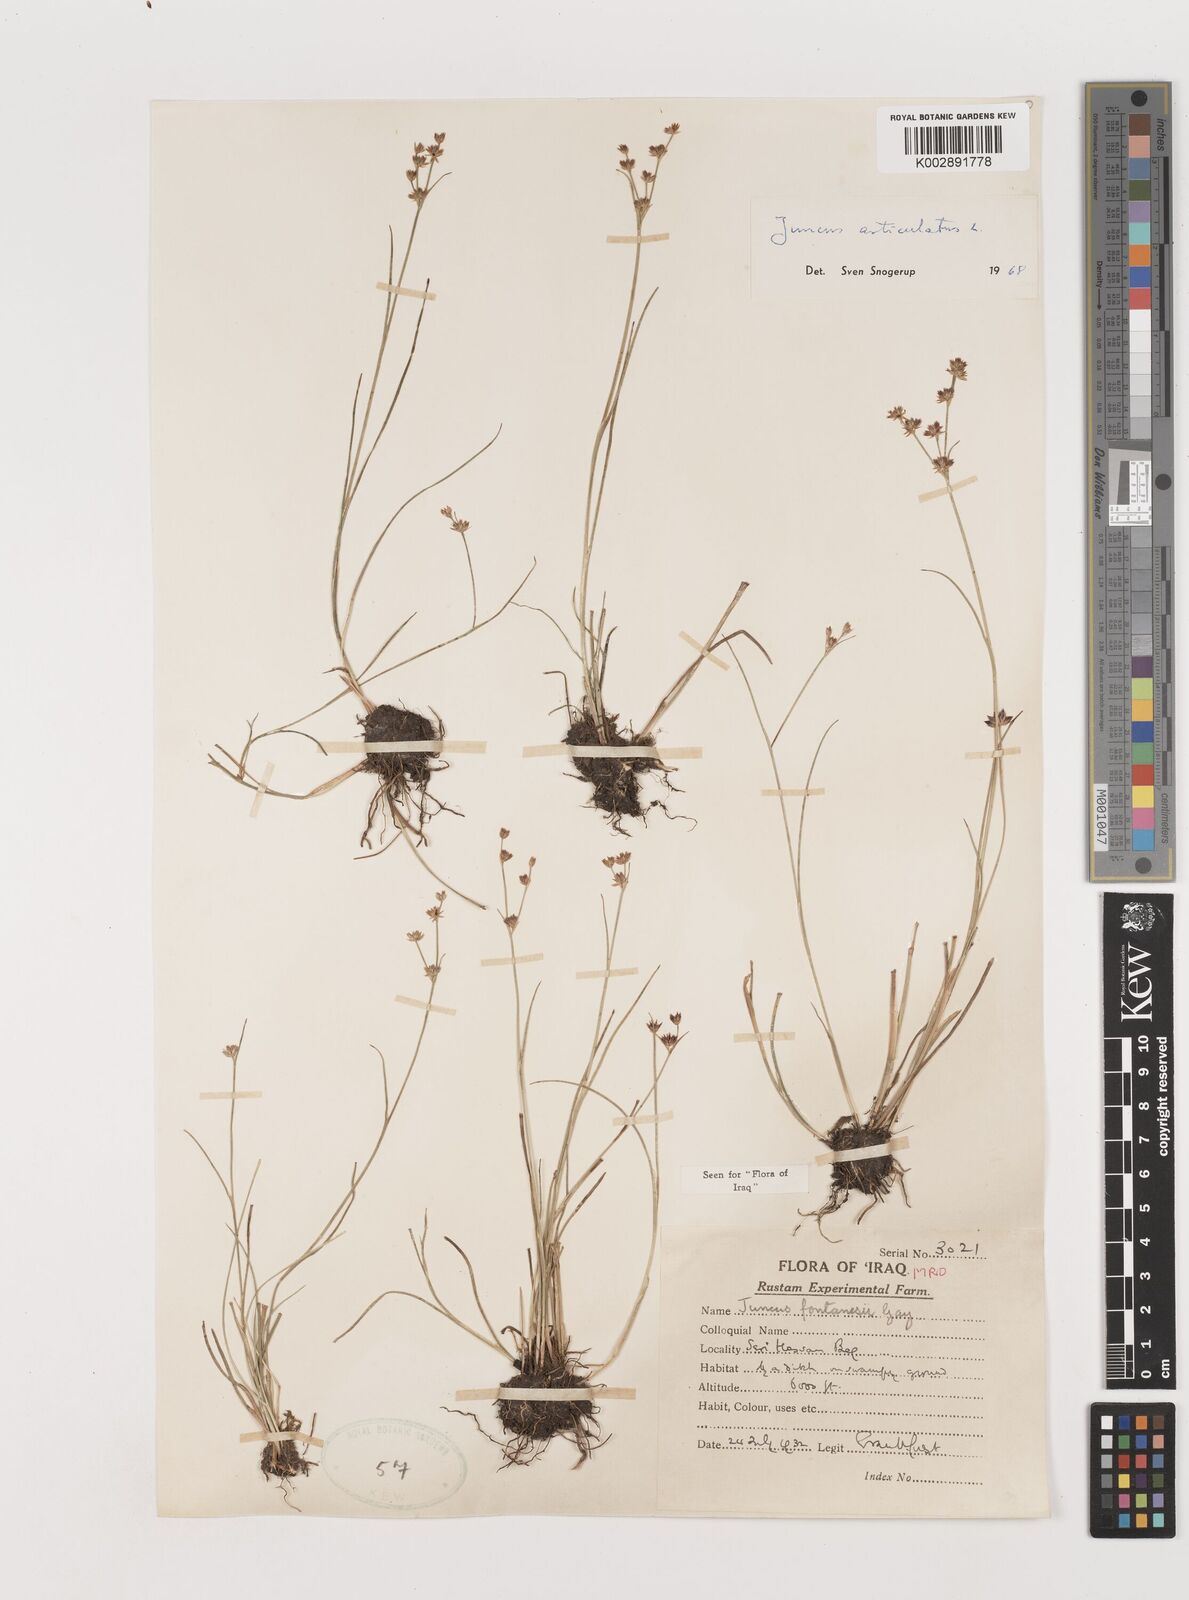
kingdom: Plantae
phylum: Tracheophyta
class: Liliopsida
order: Poales
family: Juncaceae
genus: Juncus
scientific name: Juncus articulatus
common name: Jointed rush
